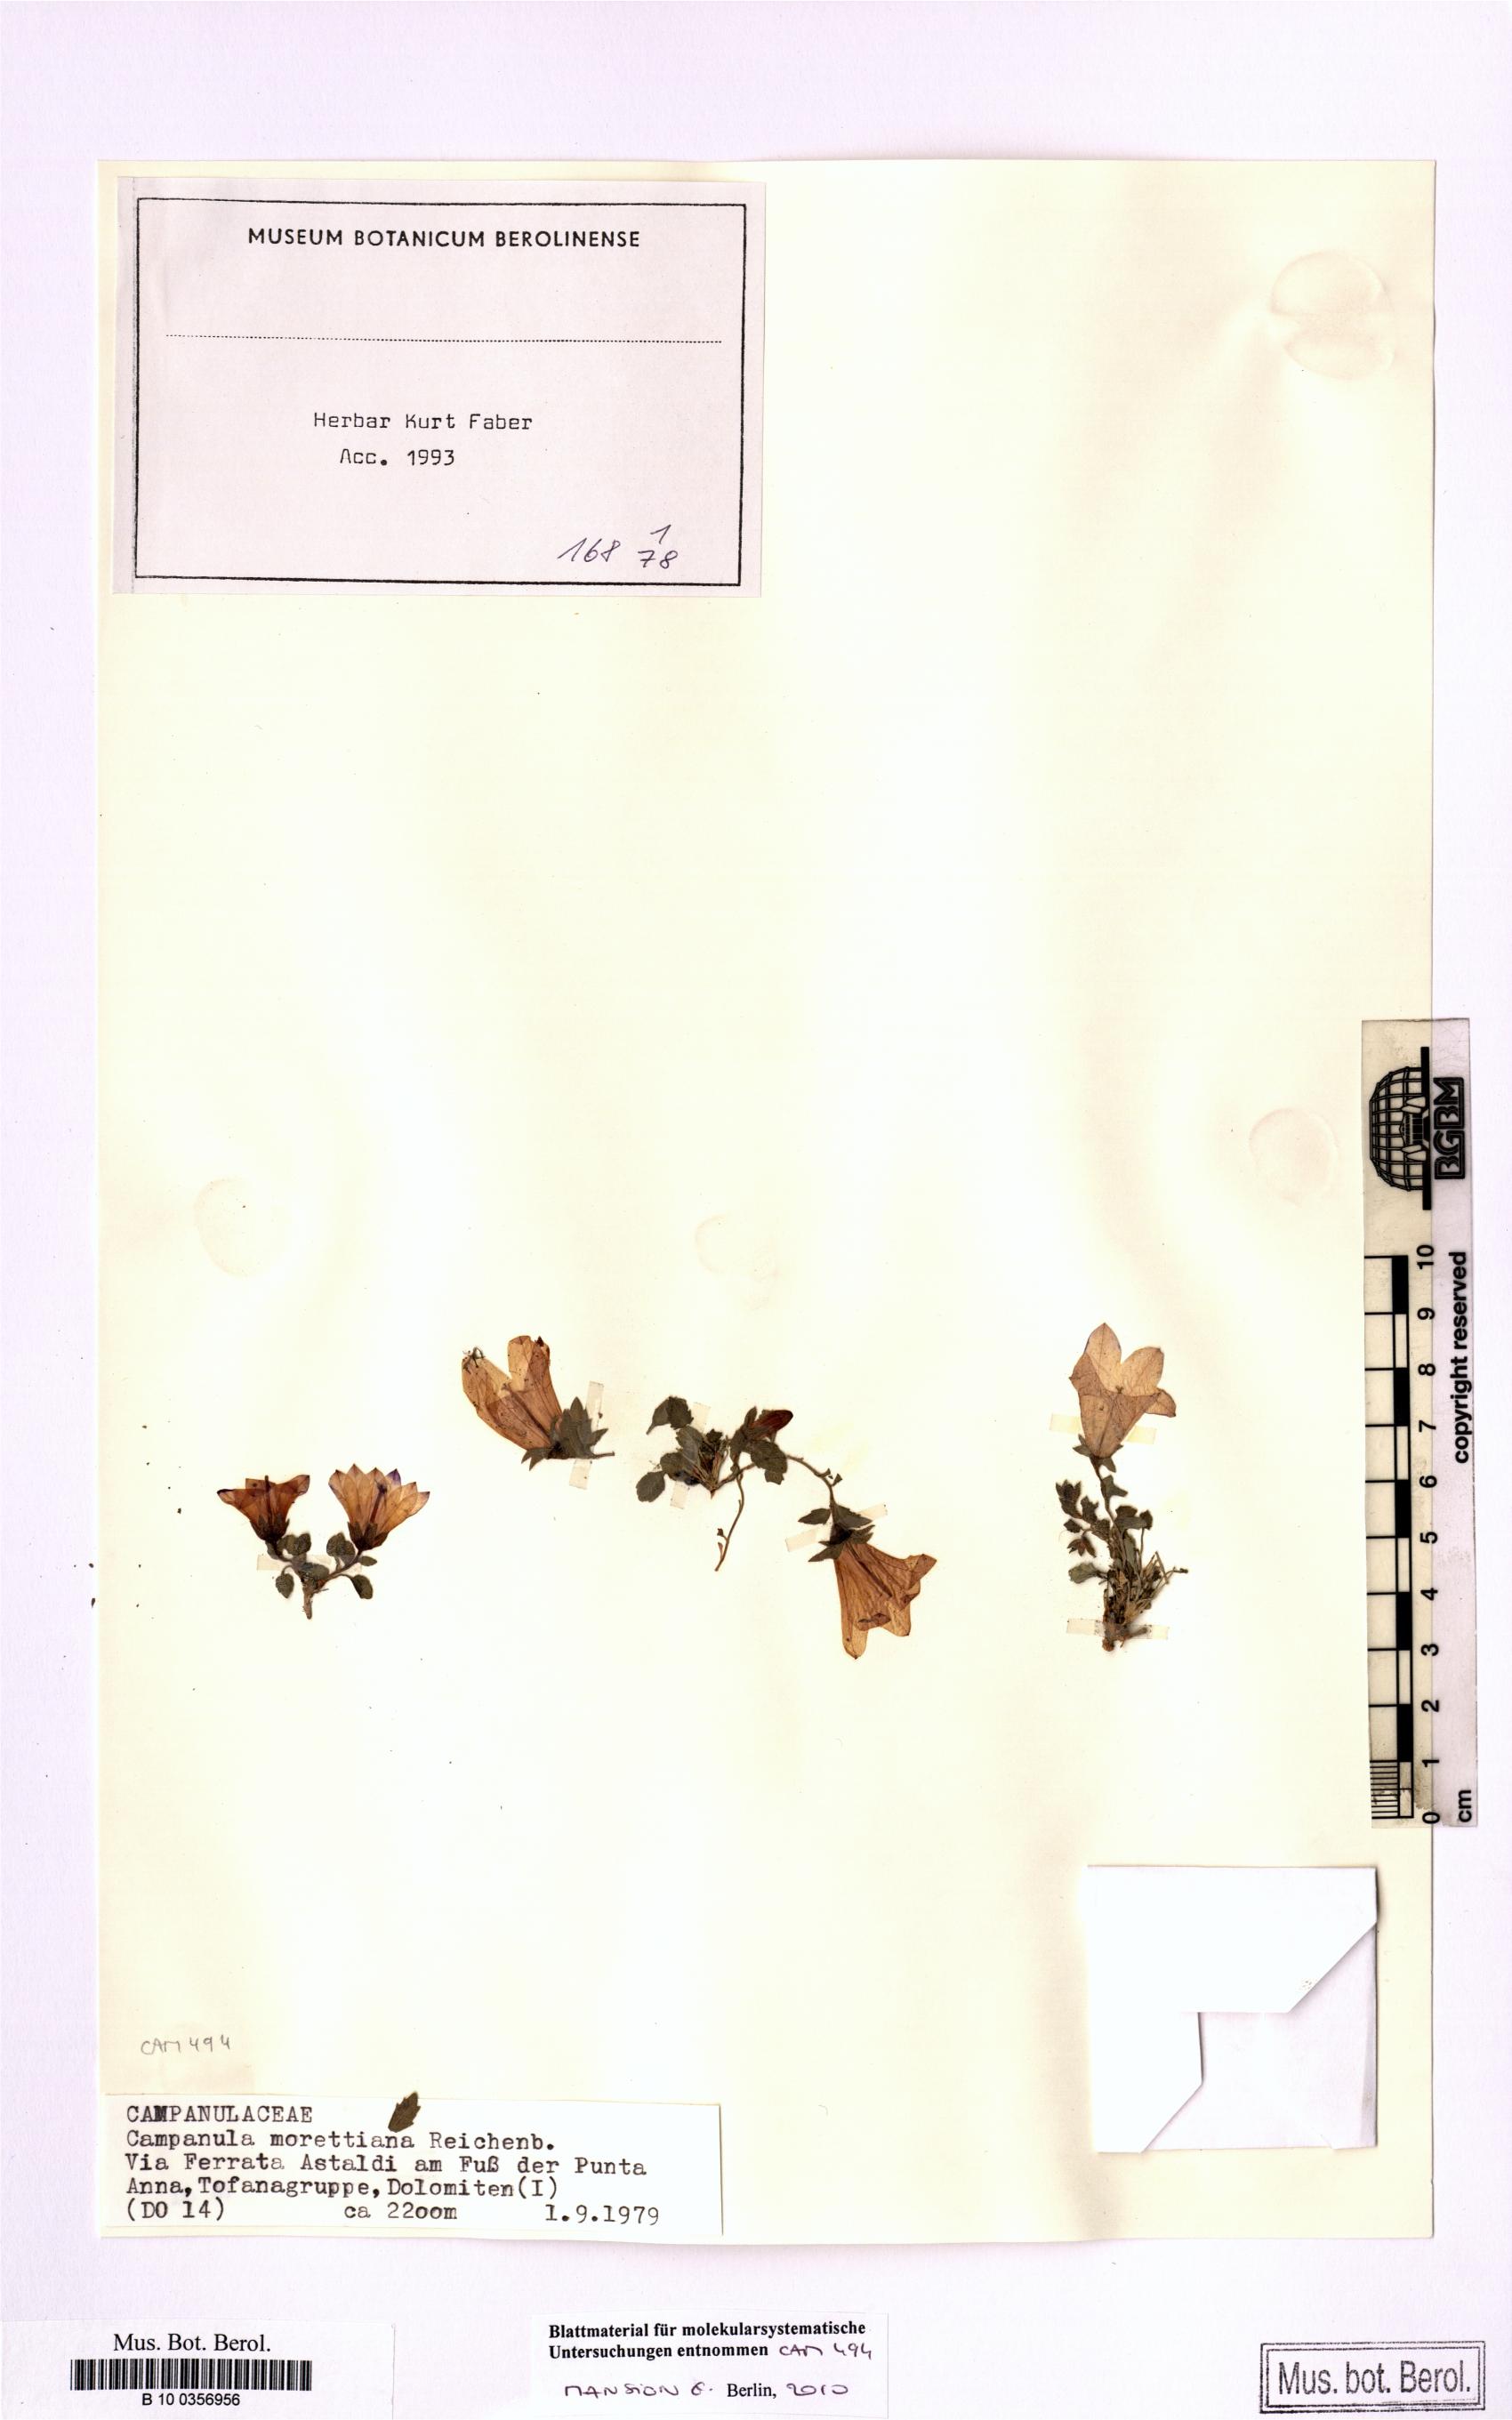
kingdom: Plantae
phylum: Tracheophyta
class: Magnoliopsida
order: Asterales
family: Campanulaceae
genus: Campanula
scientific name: Campanula morettiana
